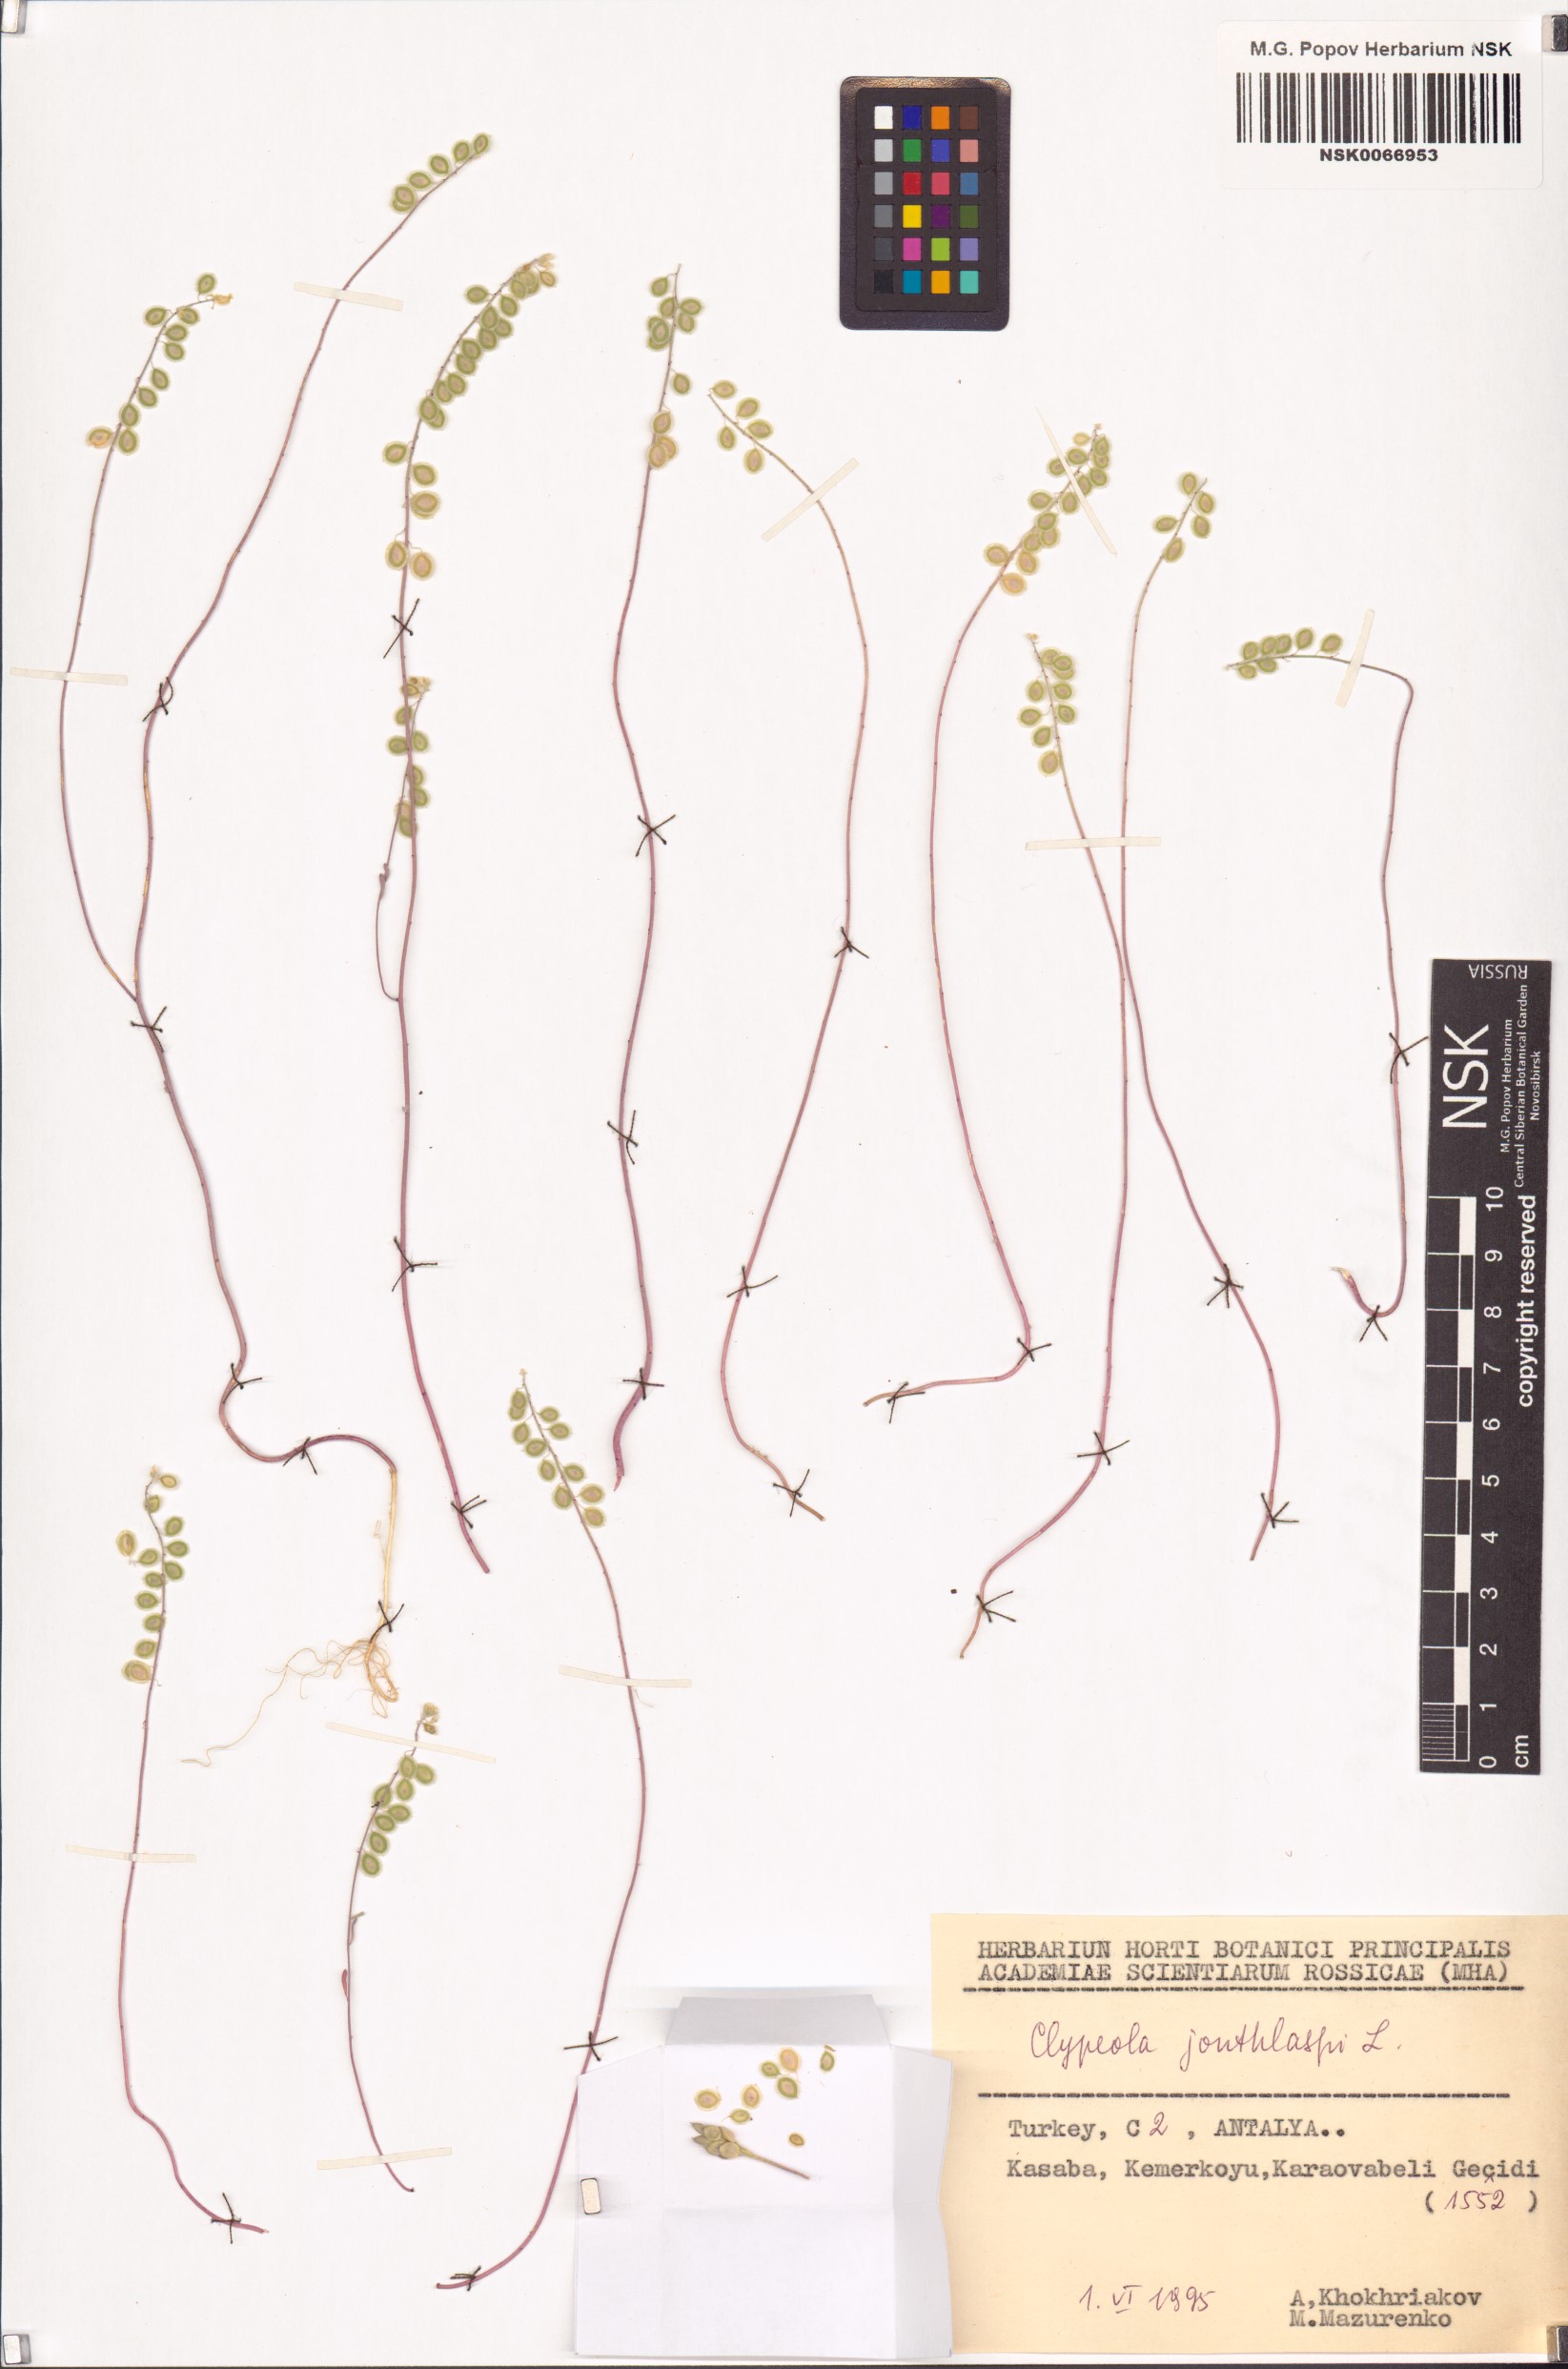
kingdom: Plantae
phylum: Tracheophyta
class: Magnoliopsida
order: Brassicales
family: Brassicaceae
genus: Clypeola
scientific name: Clypeola jonthlaspi
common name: Disk cress
